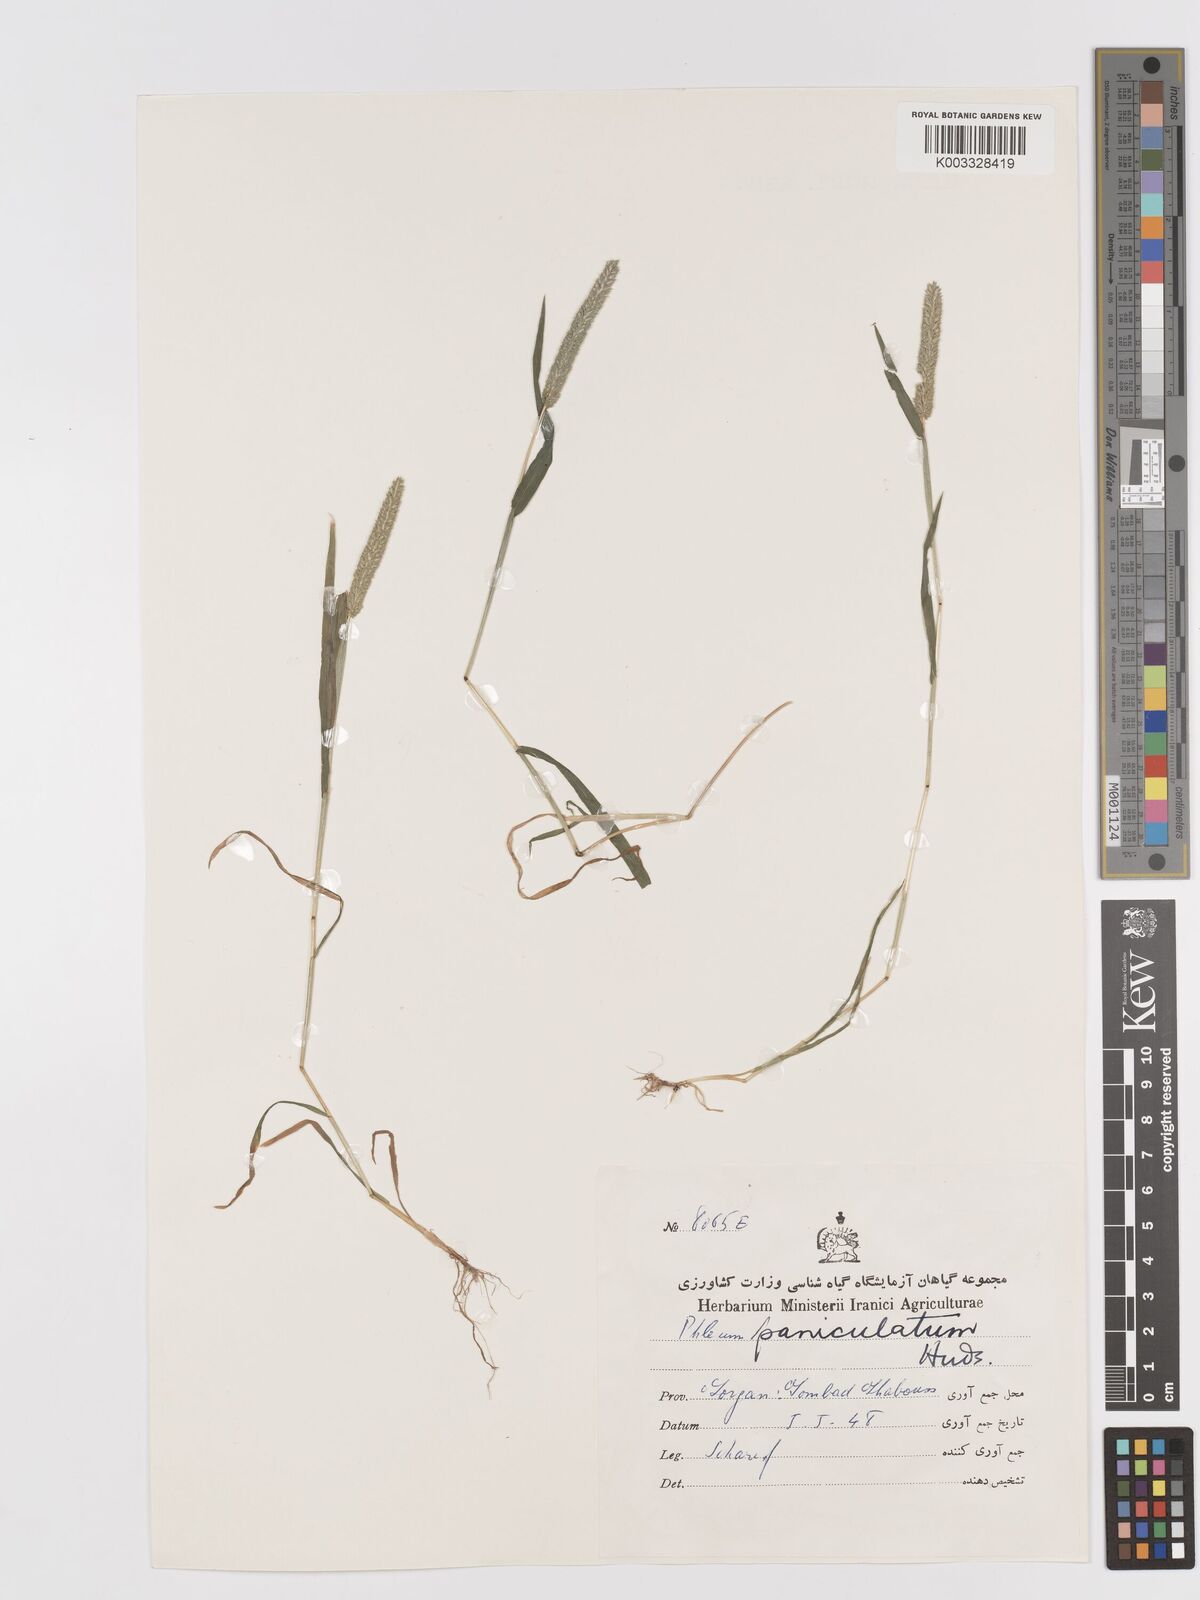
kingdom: Plantae
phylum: Tracheophyta
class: Liliopsida
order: Poales
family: Poaceae
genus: Phleum
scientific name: Phleum paniculatum
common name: British timothy
